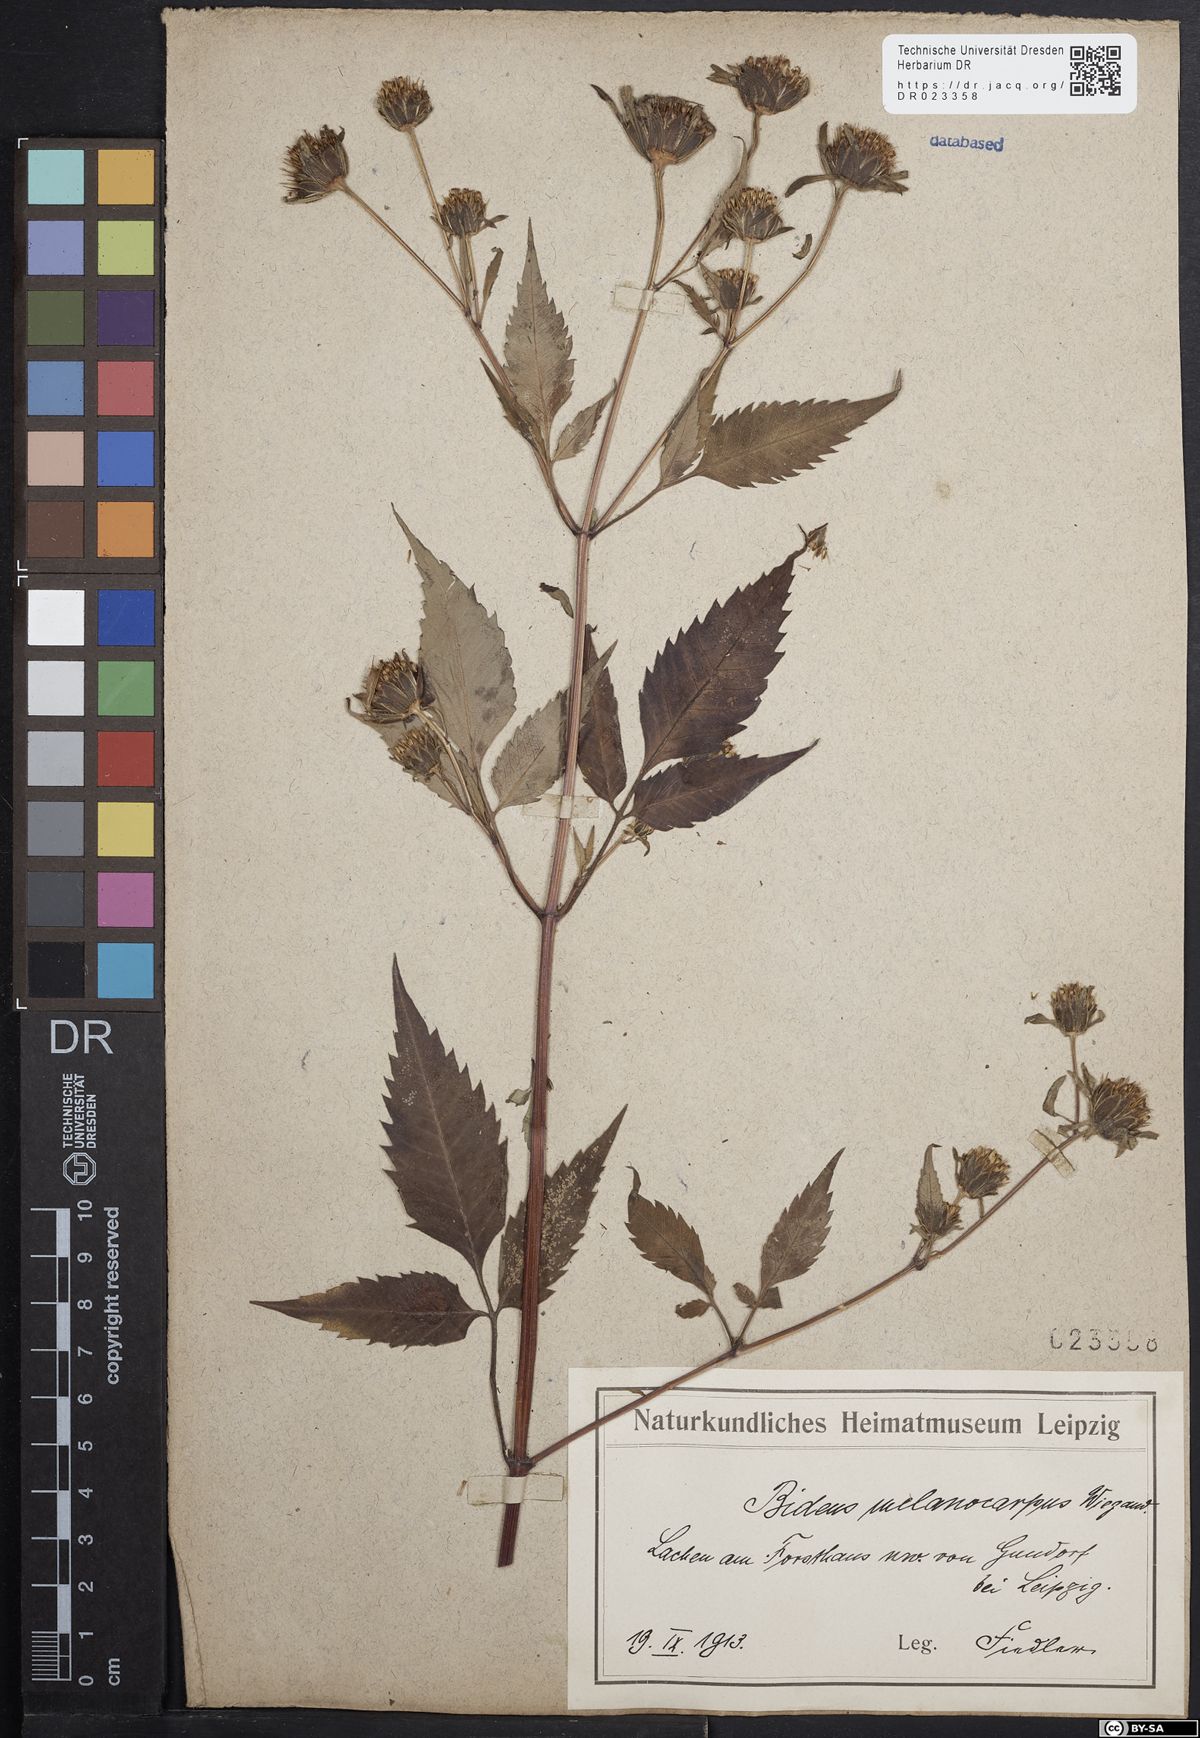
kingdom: Plantae
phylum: Tracheophyta
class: Magnoliopsida
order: Asterales
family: Asteraceae
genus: Bidens
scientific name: Bidens frondosa
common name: Beggarticks
